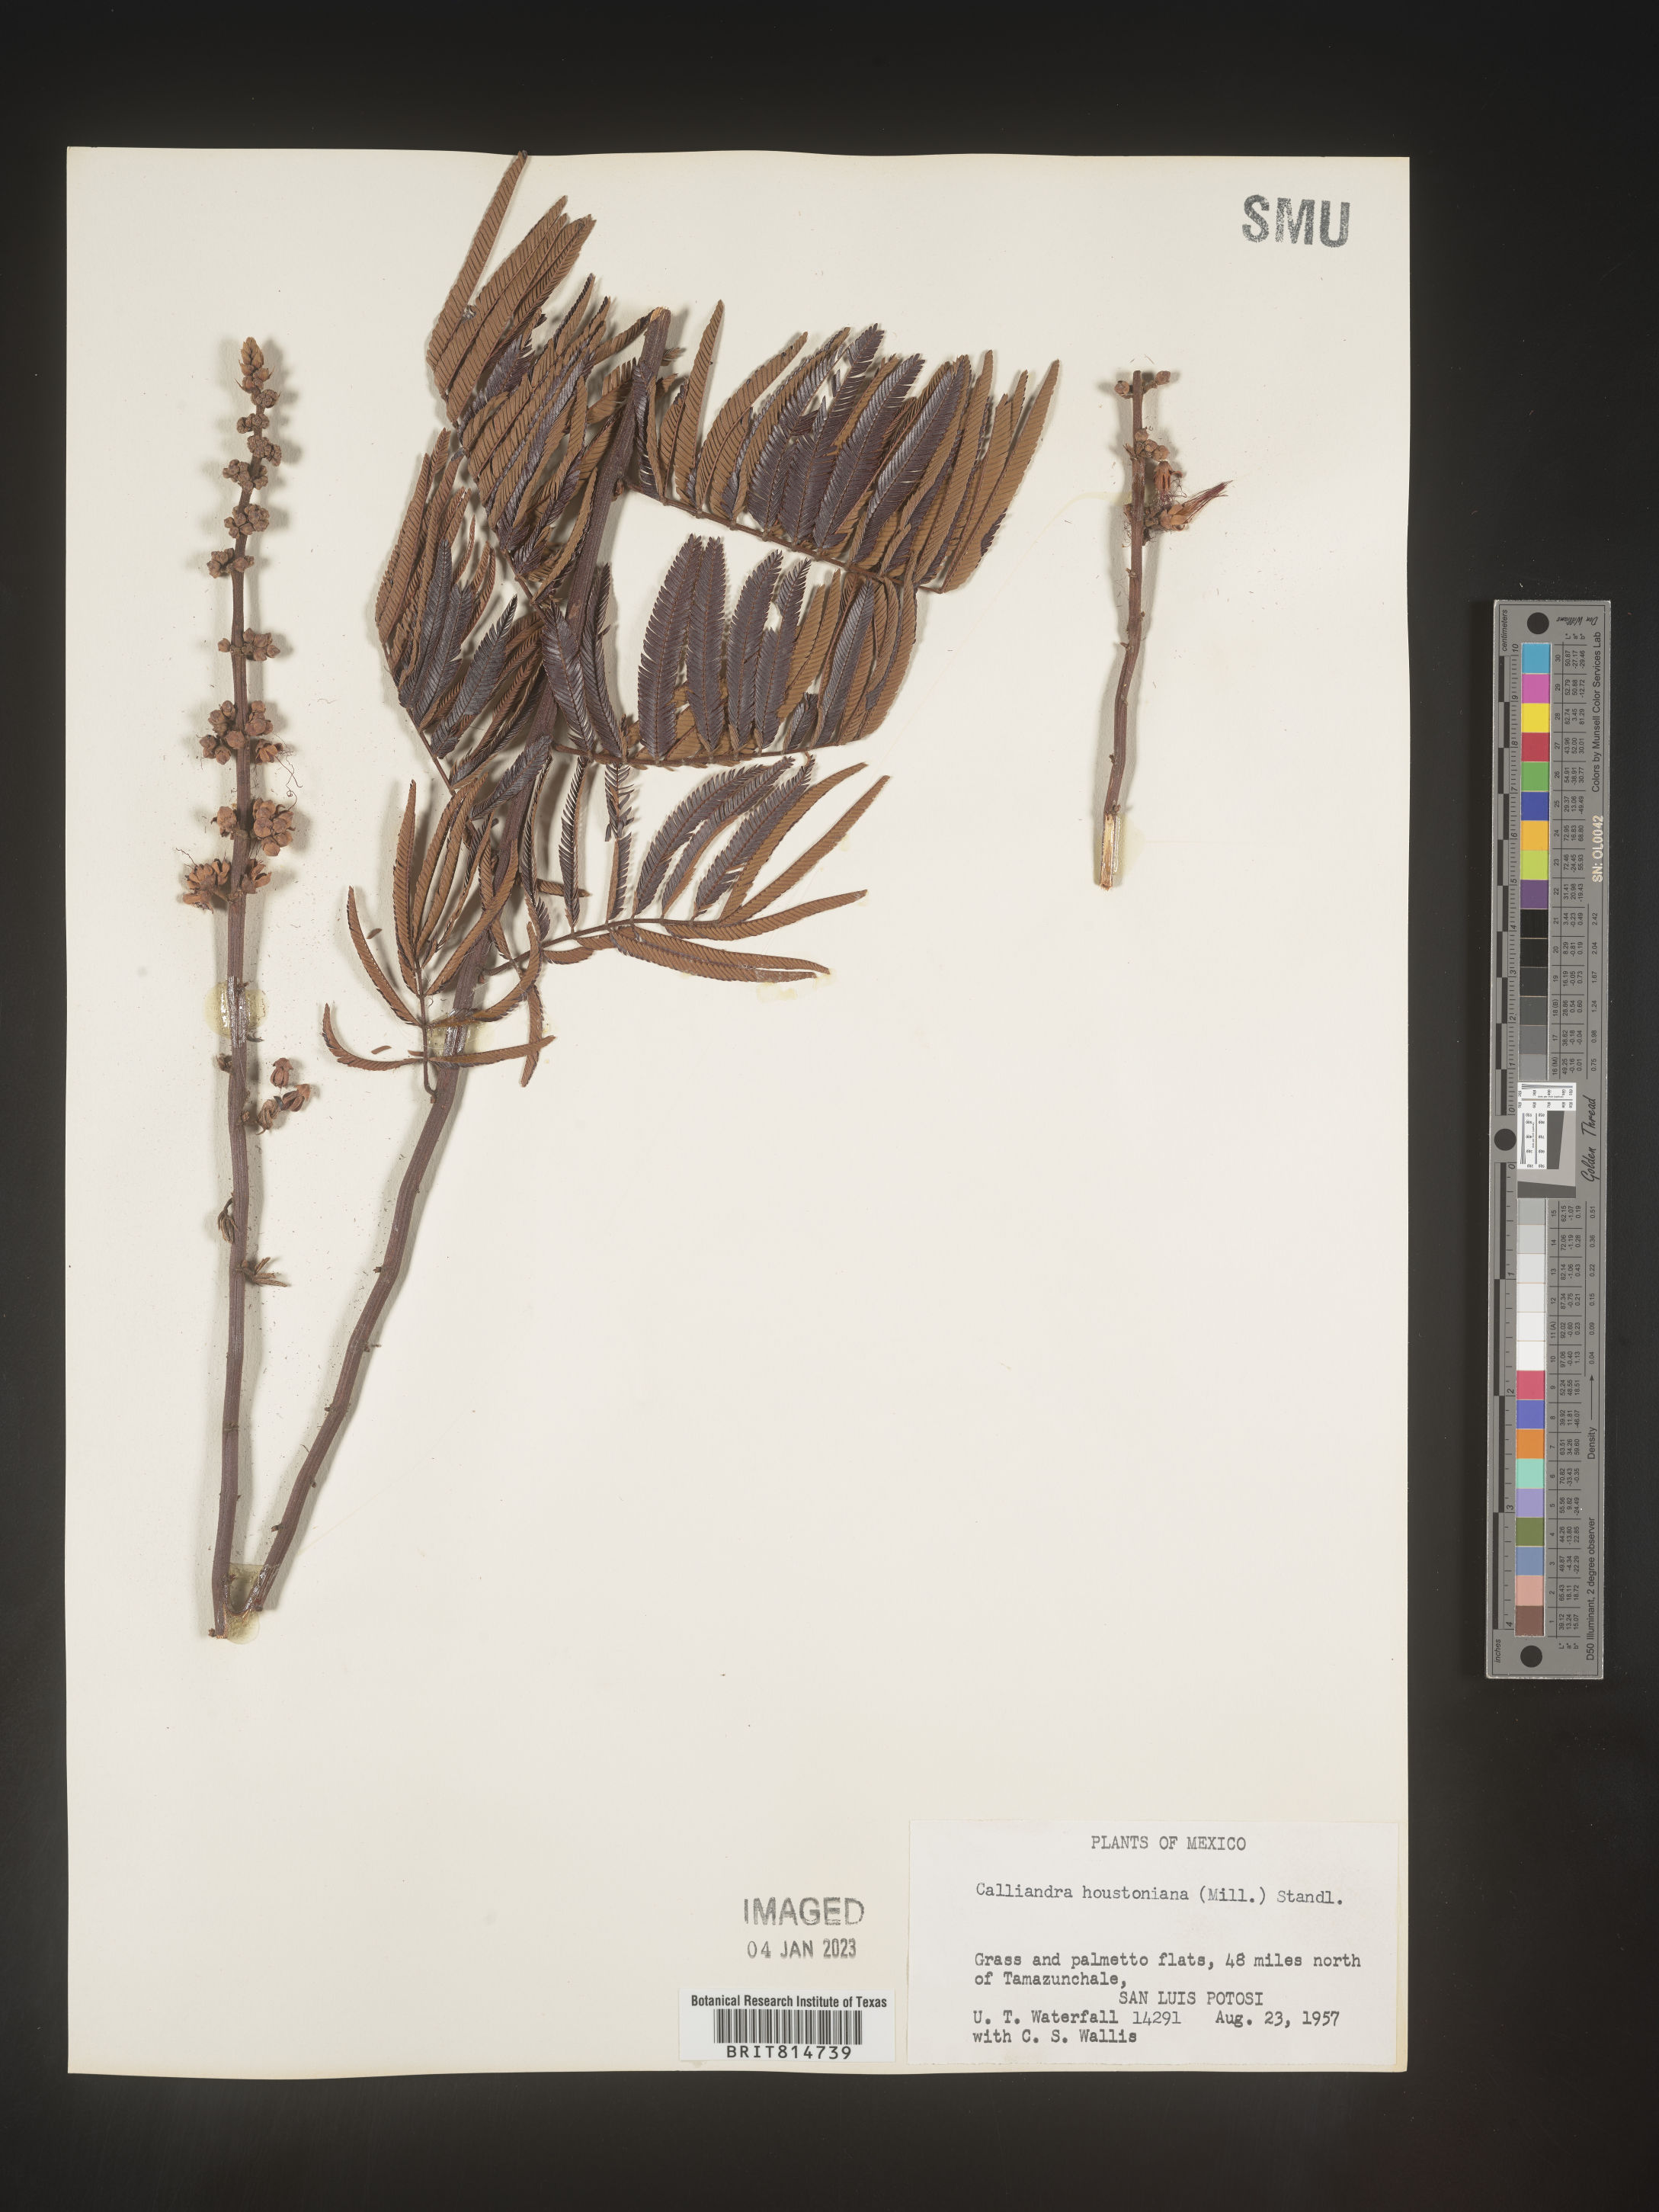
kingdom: Plantae
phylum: Tracheophyta
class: Magnoliopsida
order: Fabales
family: Fabaceae
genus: Calliandra
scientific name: Calliandra
